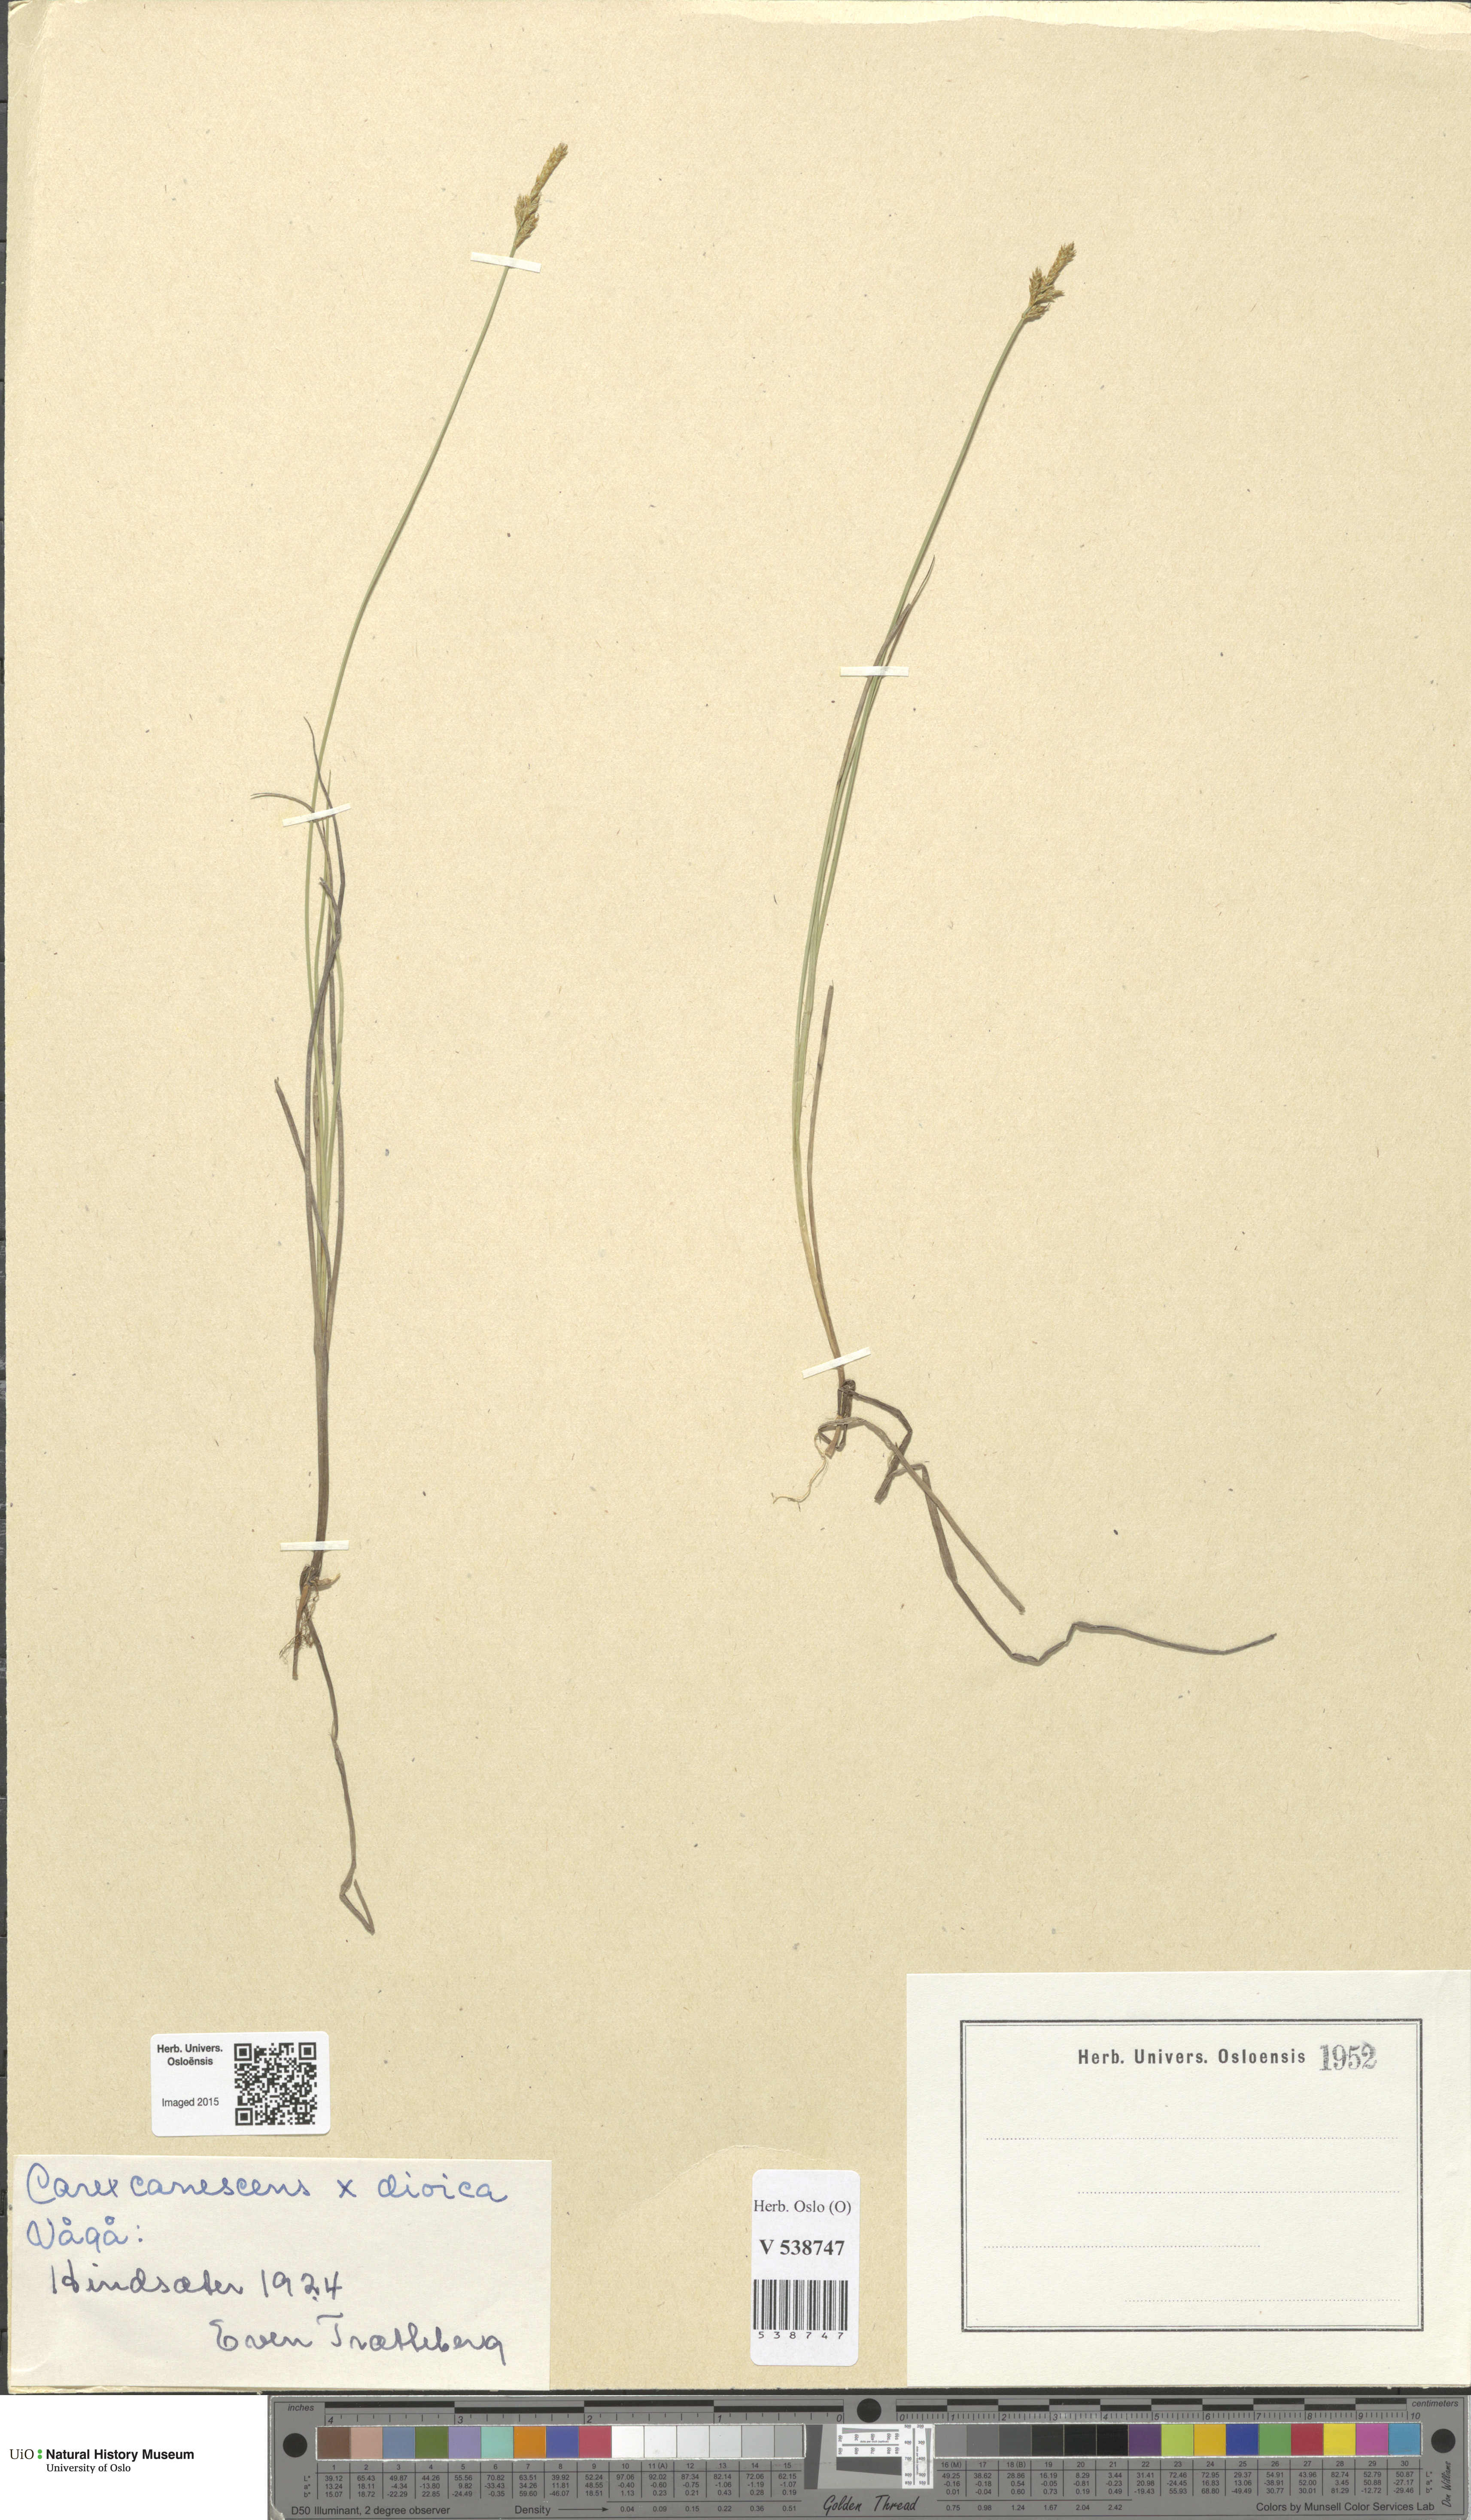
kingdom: Plantae
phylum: Tracheophyta
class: Liliopsida
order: Poales
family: Cyperaceae
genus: Carex
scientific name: Carex
